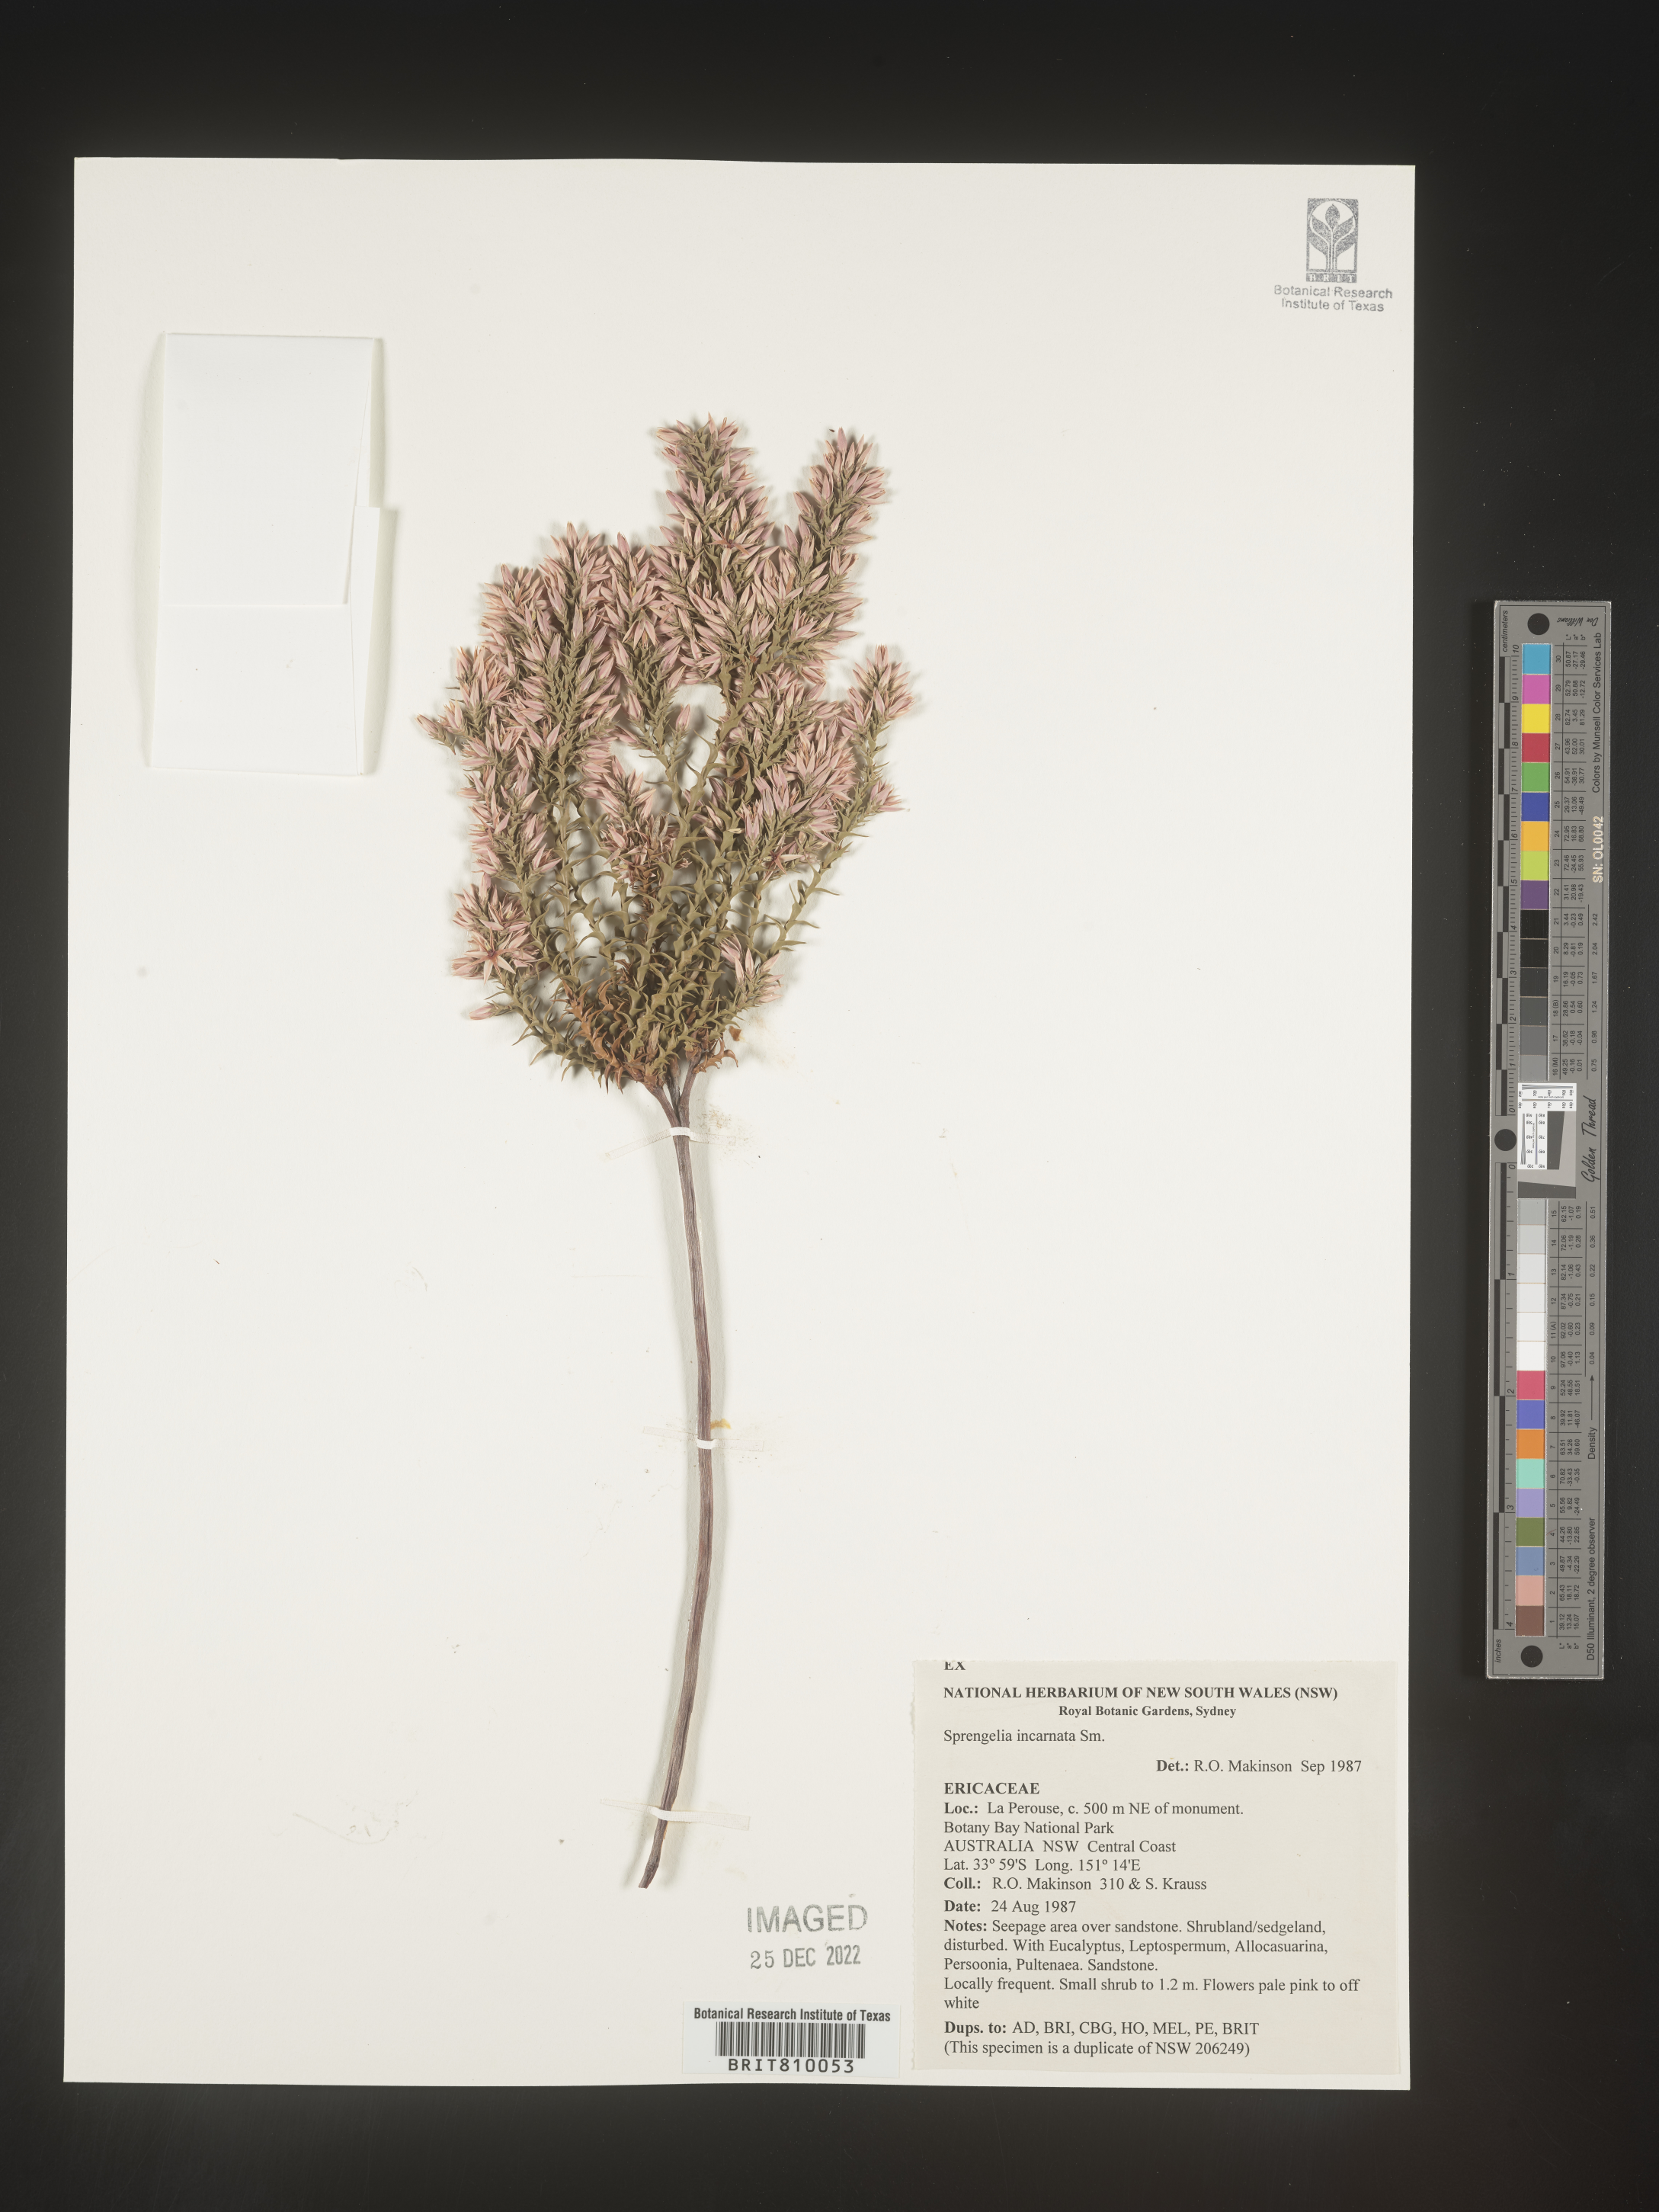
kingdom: Plantae
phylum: Tracheophyta
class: Magnoliopsida
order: Ericales
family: Ericaceae
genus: Sprengelia
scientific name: Sprengelia
